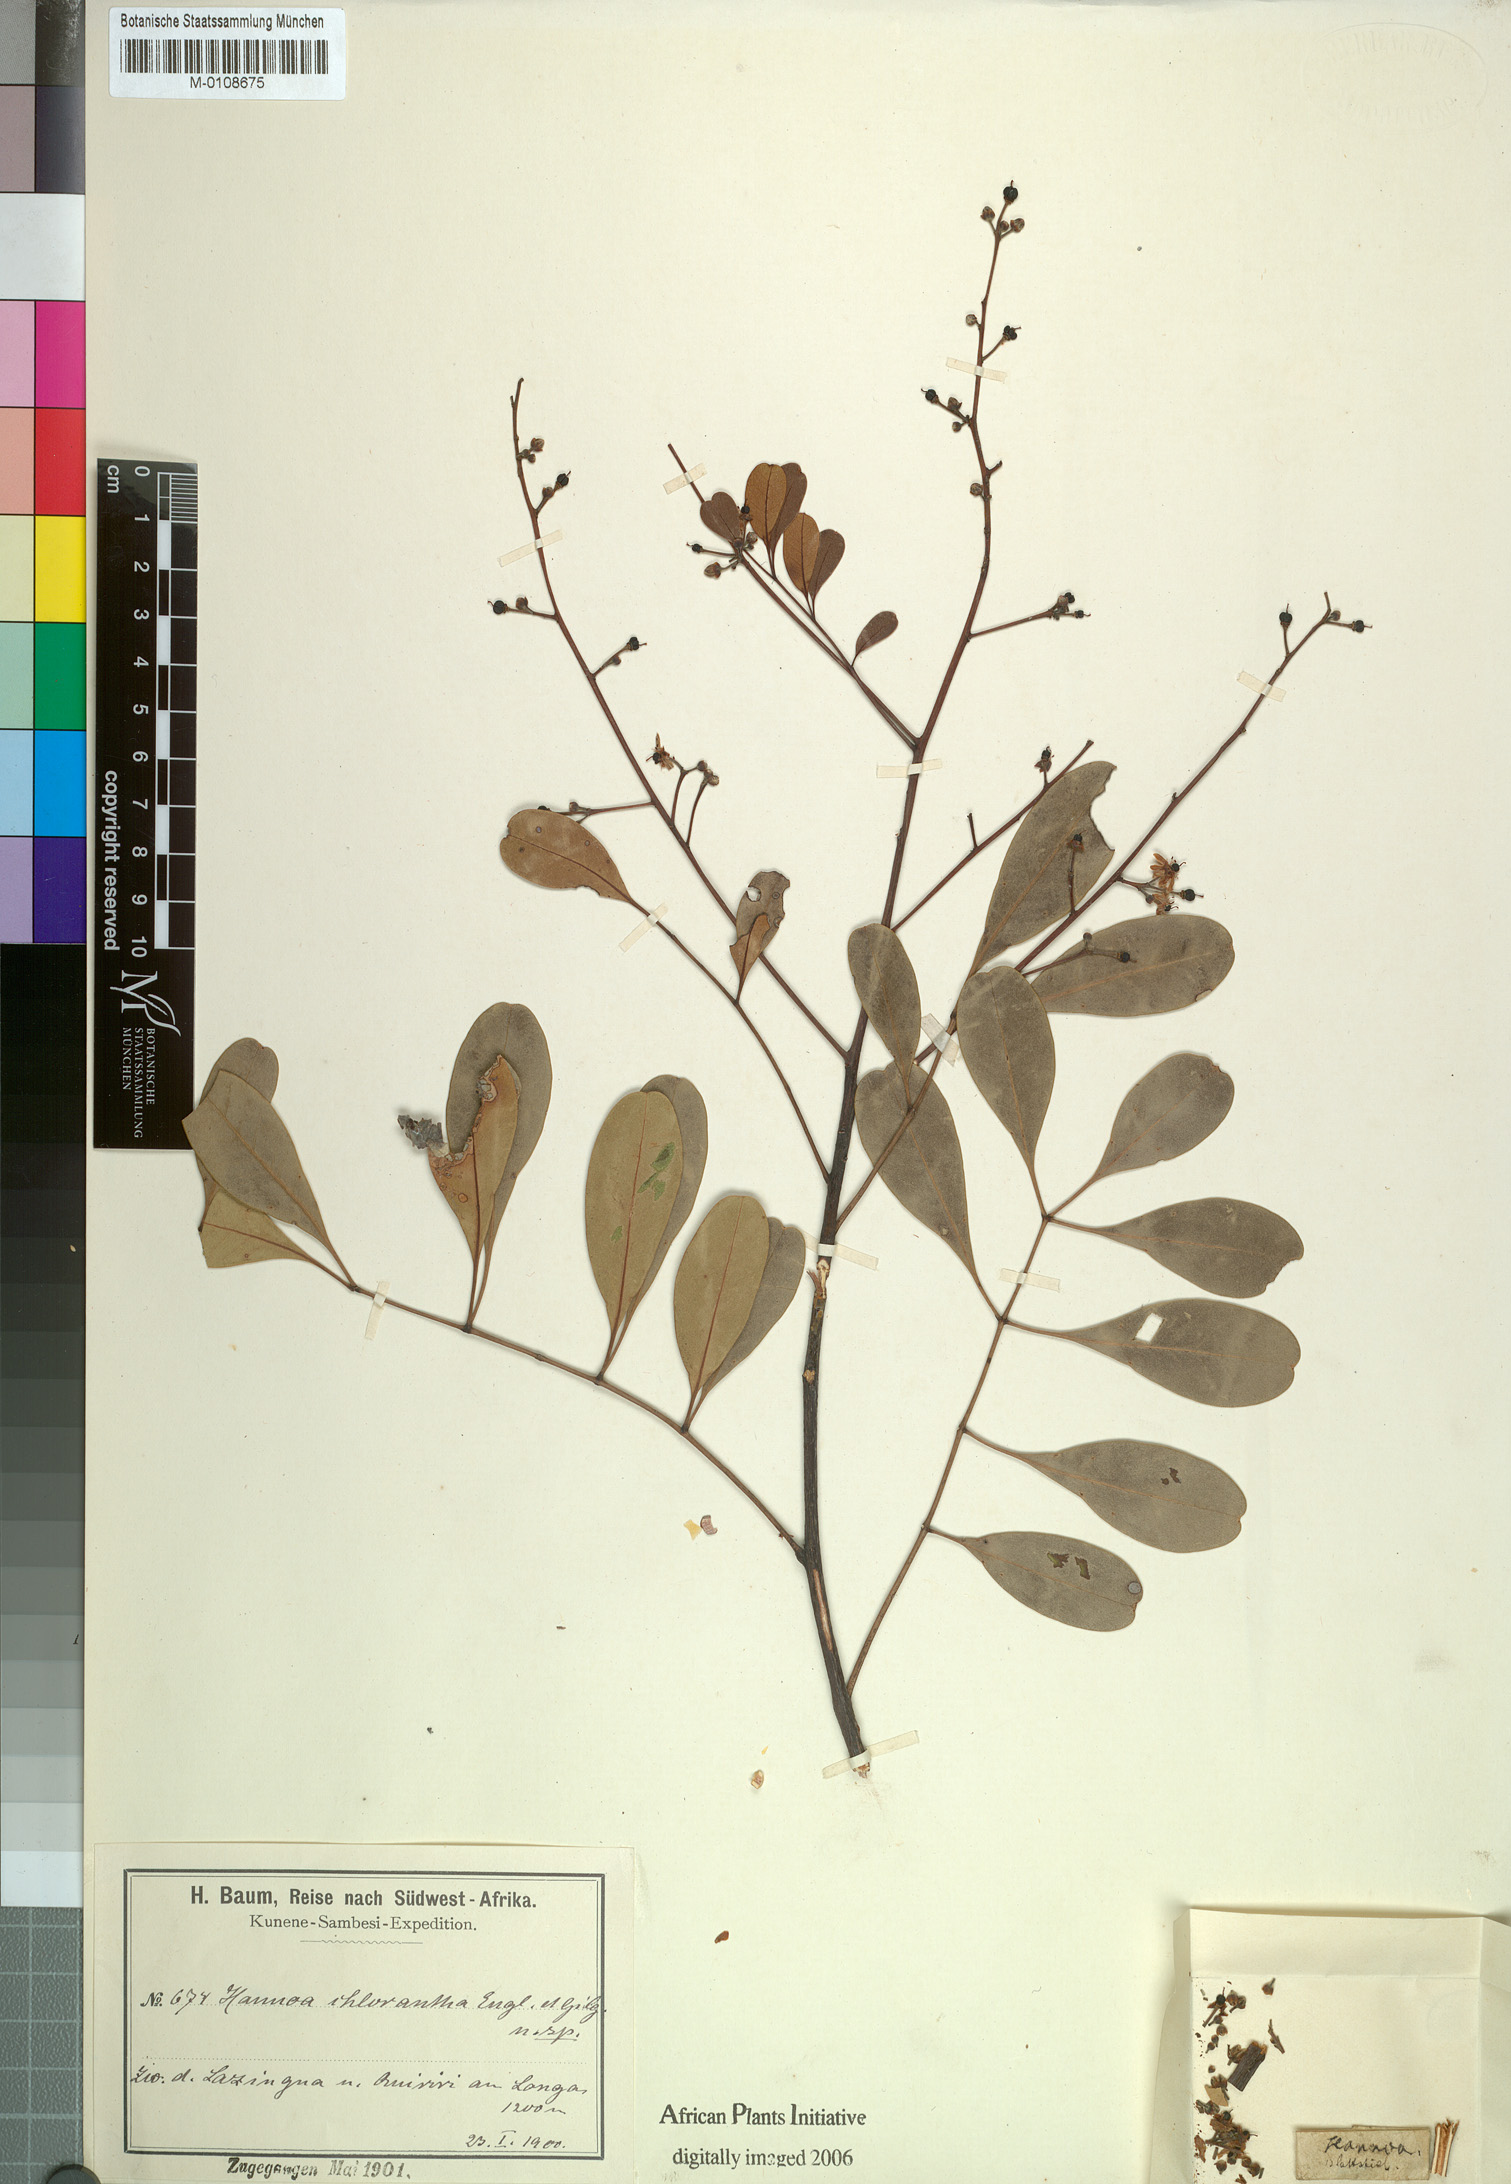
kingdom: Plantae
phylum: Tracheophyta
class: Magnoliopsida
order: Sapindales
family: Simaroubaceae
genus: Odyendyea
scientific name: Odyendyea klaineana
